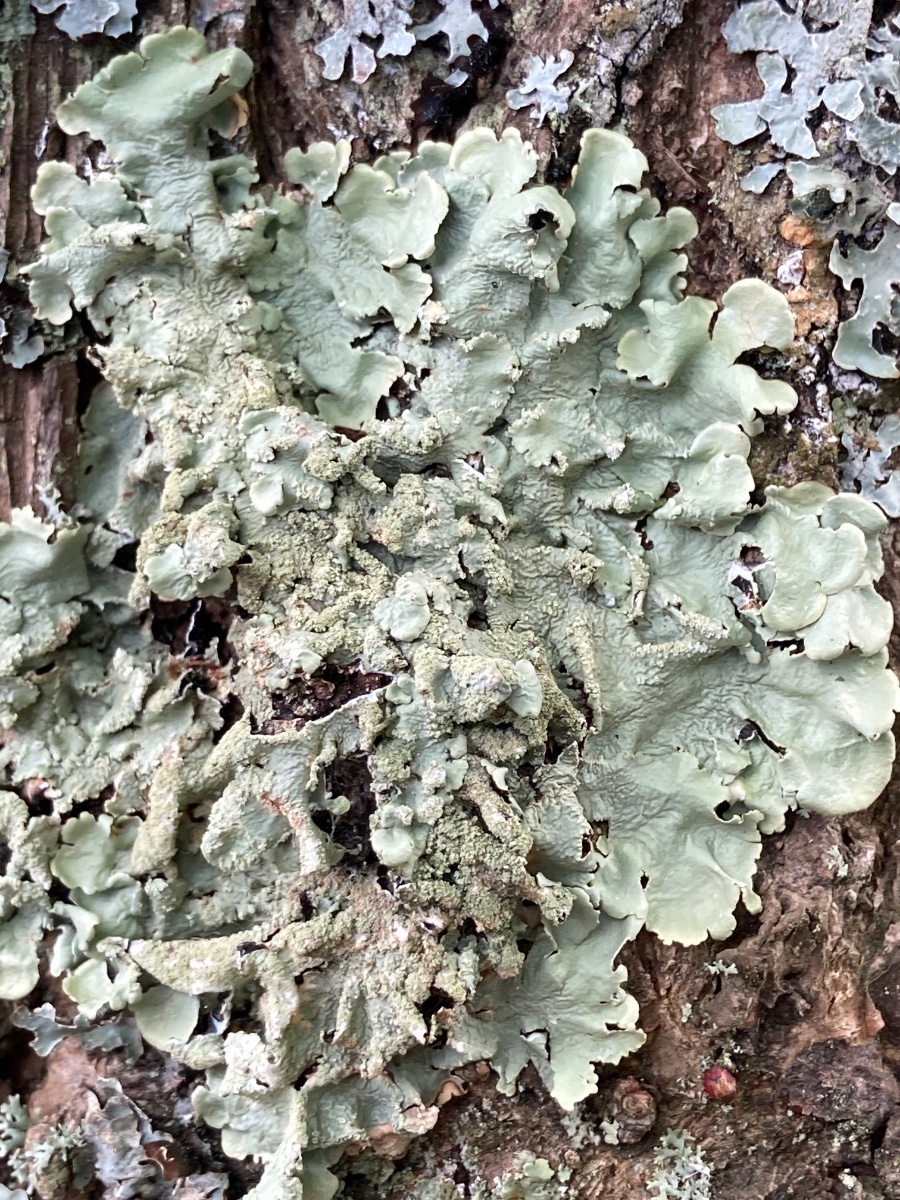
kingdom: Fungi
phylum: Ascomycota
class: Lecanoromycetes
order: Lecanorales
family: Parmeliaceae
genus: Flavoparmelia
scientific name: Flavoparmelia caperata
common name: gulgrøn skållav
